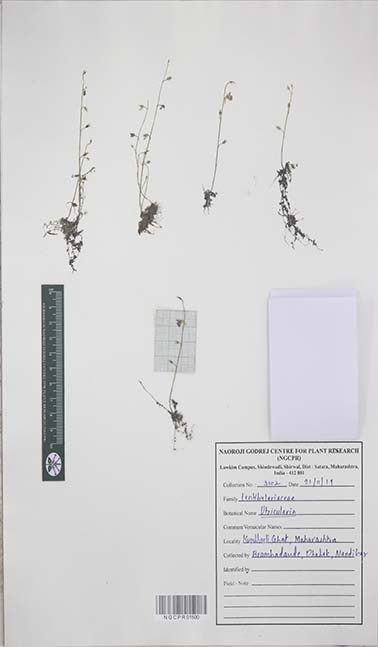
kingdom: Plantae
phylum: Tracheophyta
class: Magnoliopsida
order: Lamiales
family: Lentibulariaceae
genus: Utricularia
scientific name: Utricularia
